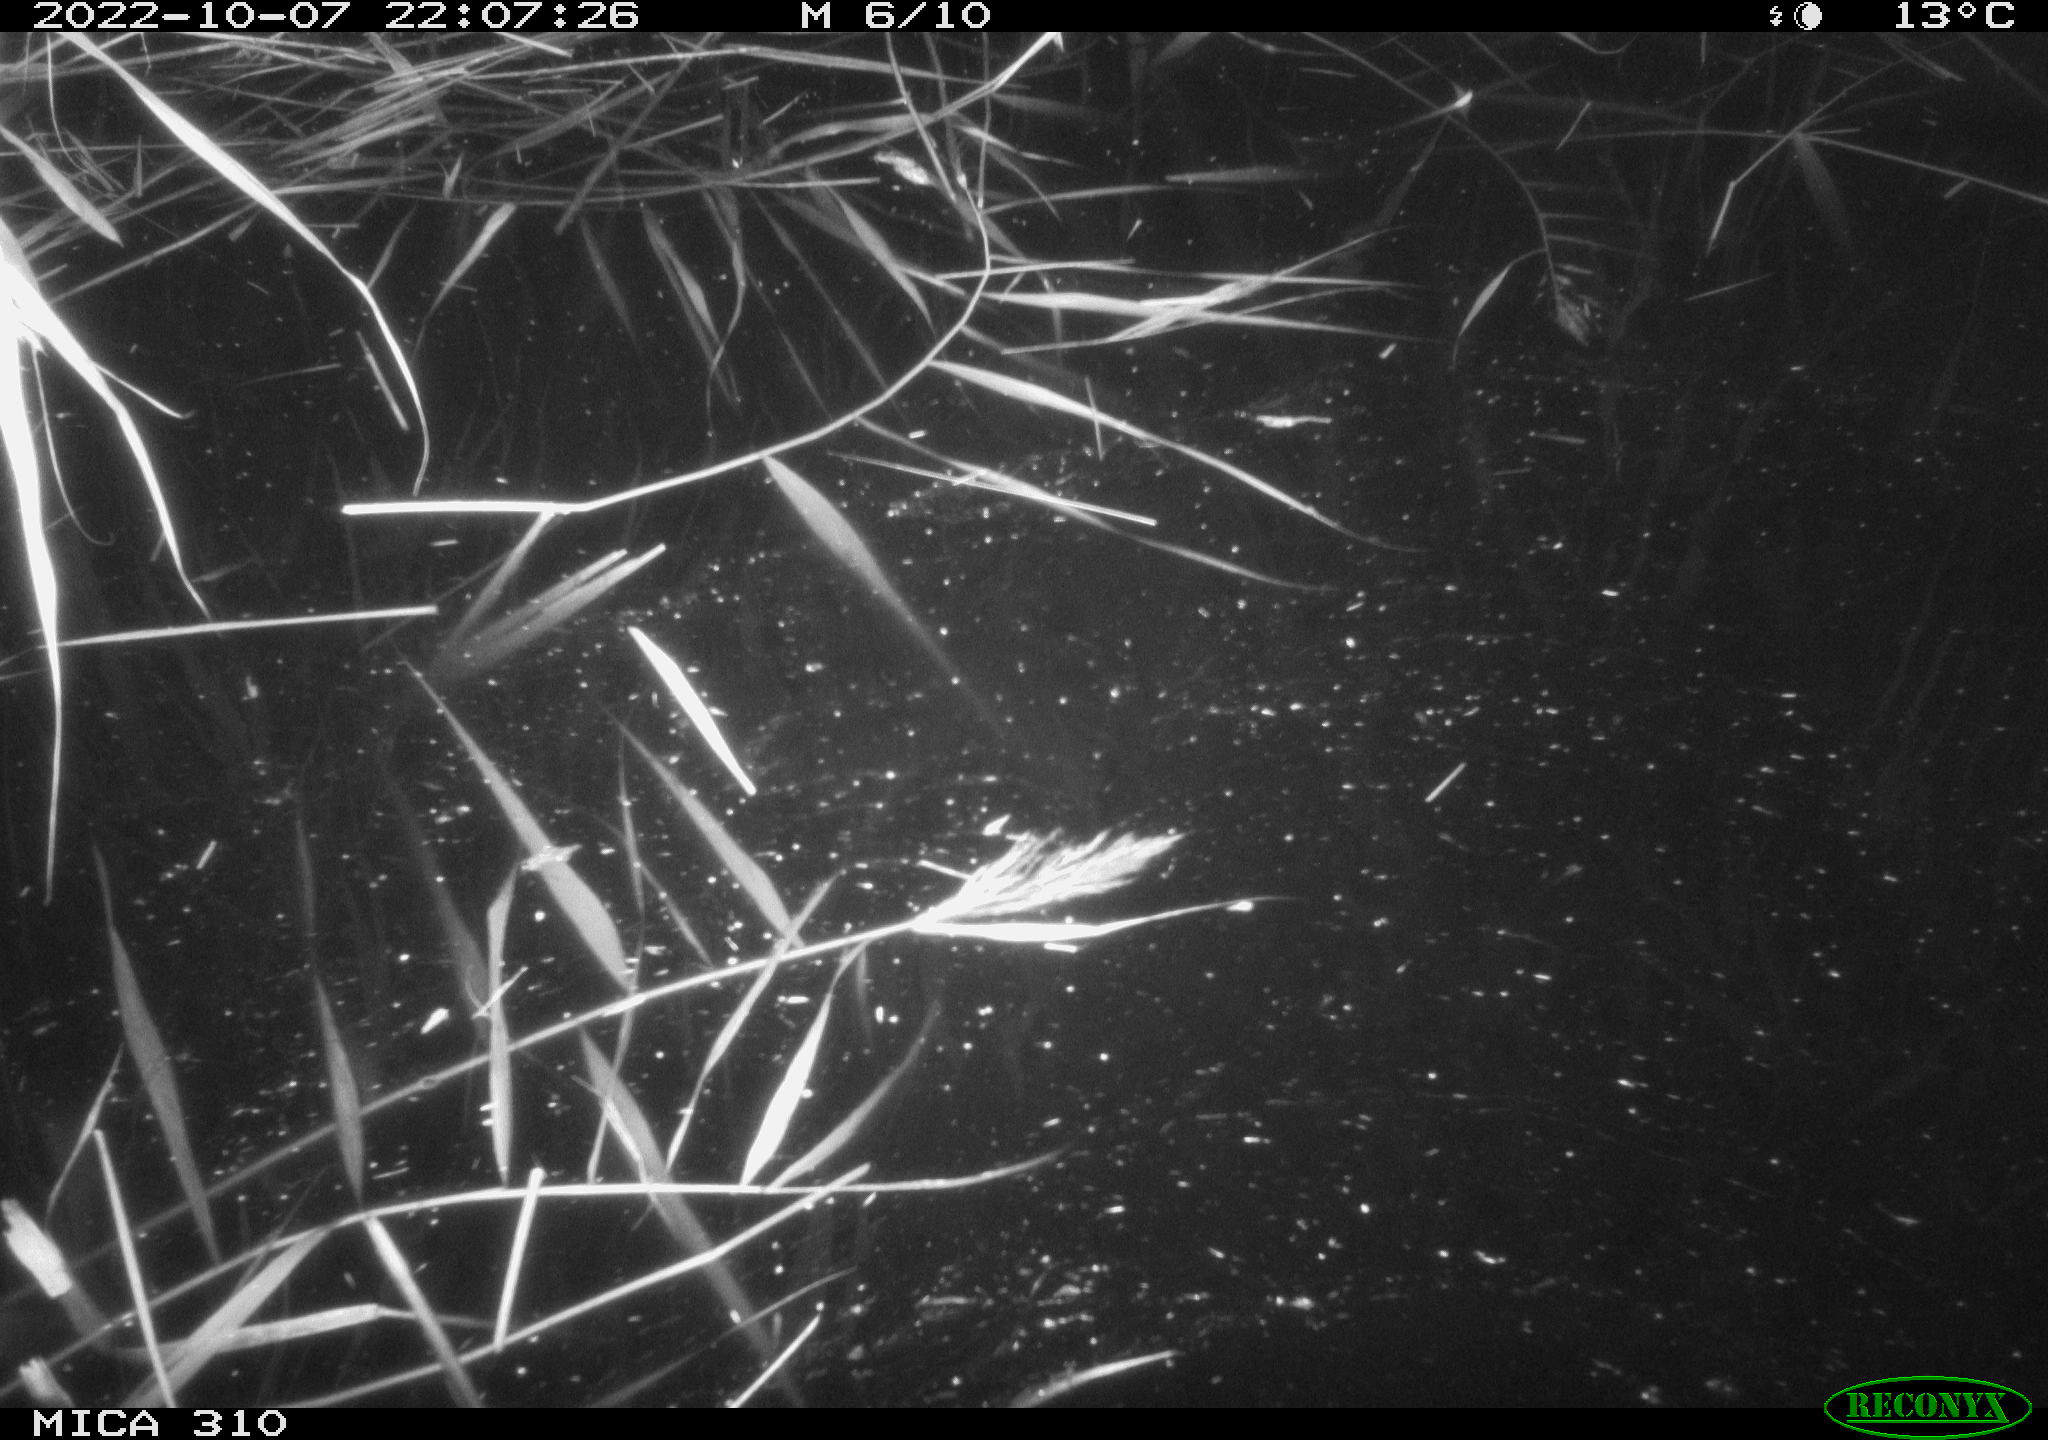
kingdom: Animalia
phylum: Chordata
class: Mammalia
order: Rodentia
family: Muridae
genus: Rattus
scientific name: Rattus norvegicus
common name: Brown rat
